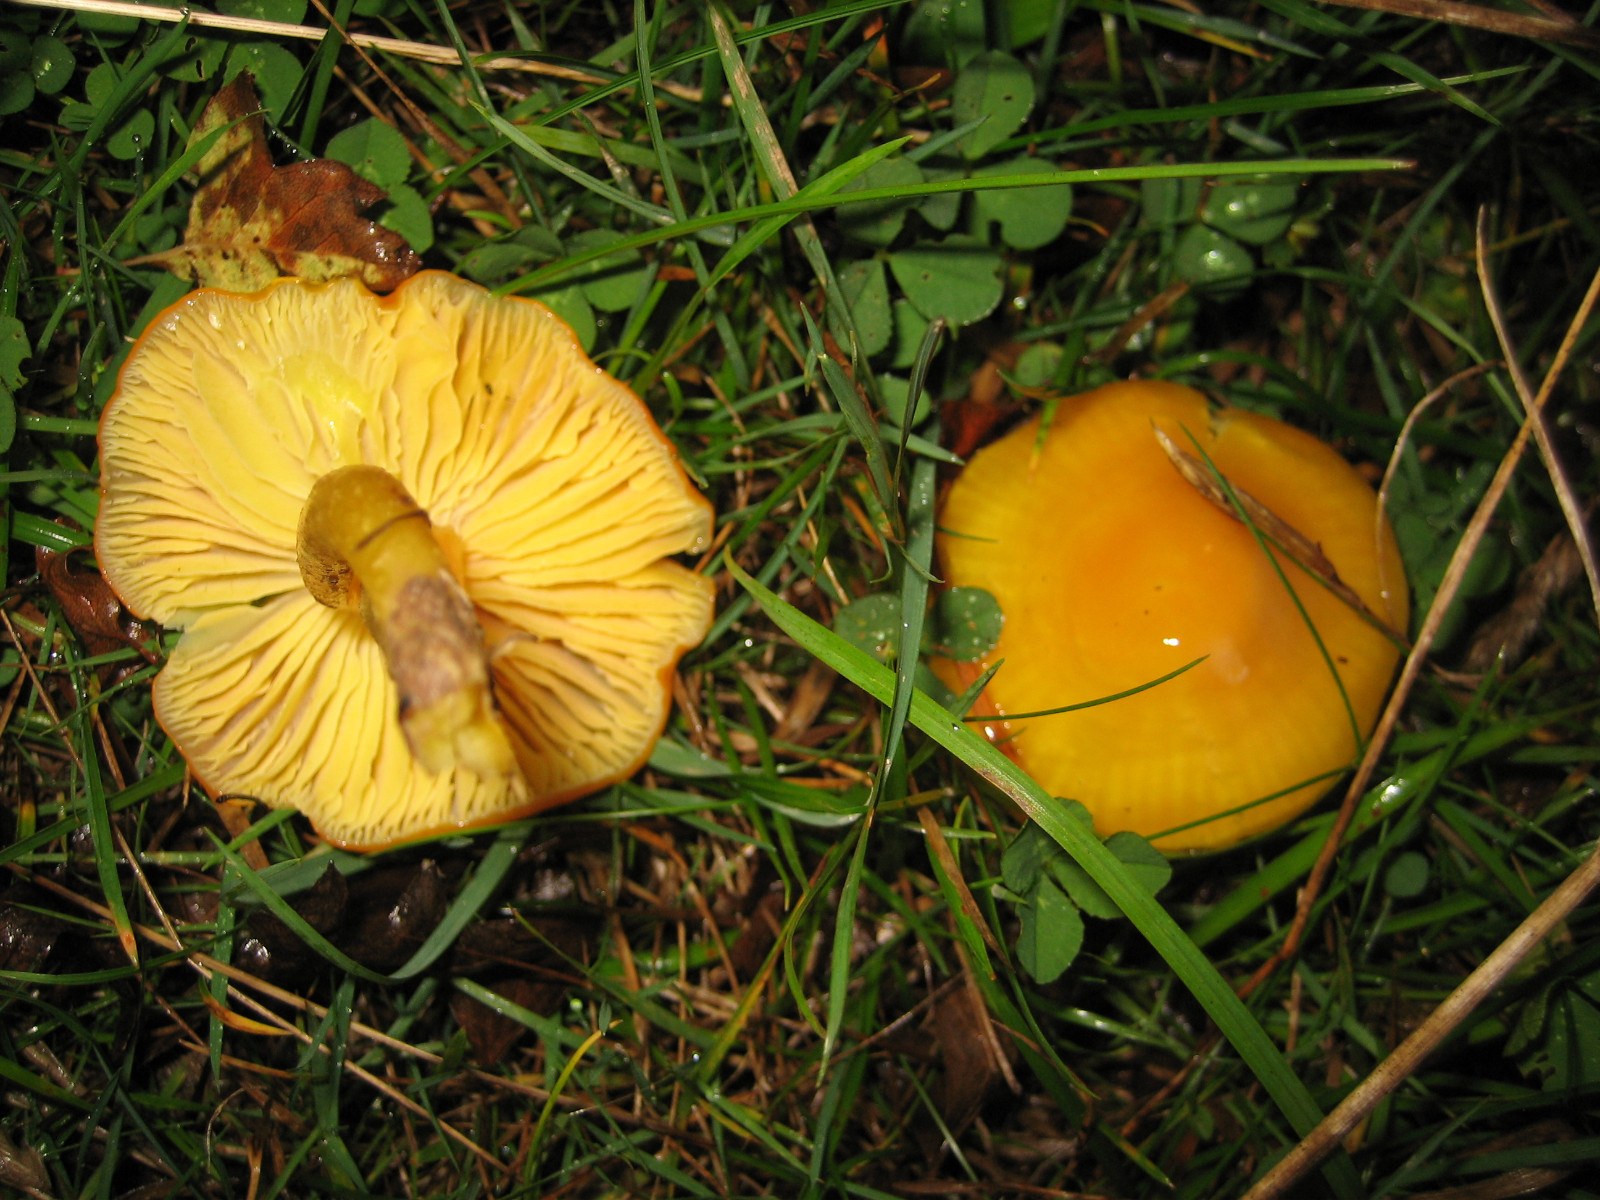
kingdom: Fungi
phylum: Basidiomycota
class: Agaricomycetes
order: Agaricales
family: Hygrophoraceae
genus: Hygrocybe
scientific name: Hygrocybe chlorophana
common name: gul vokshat
